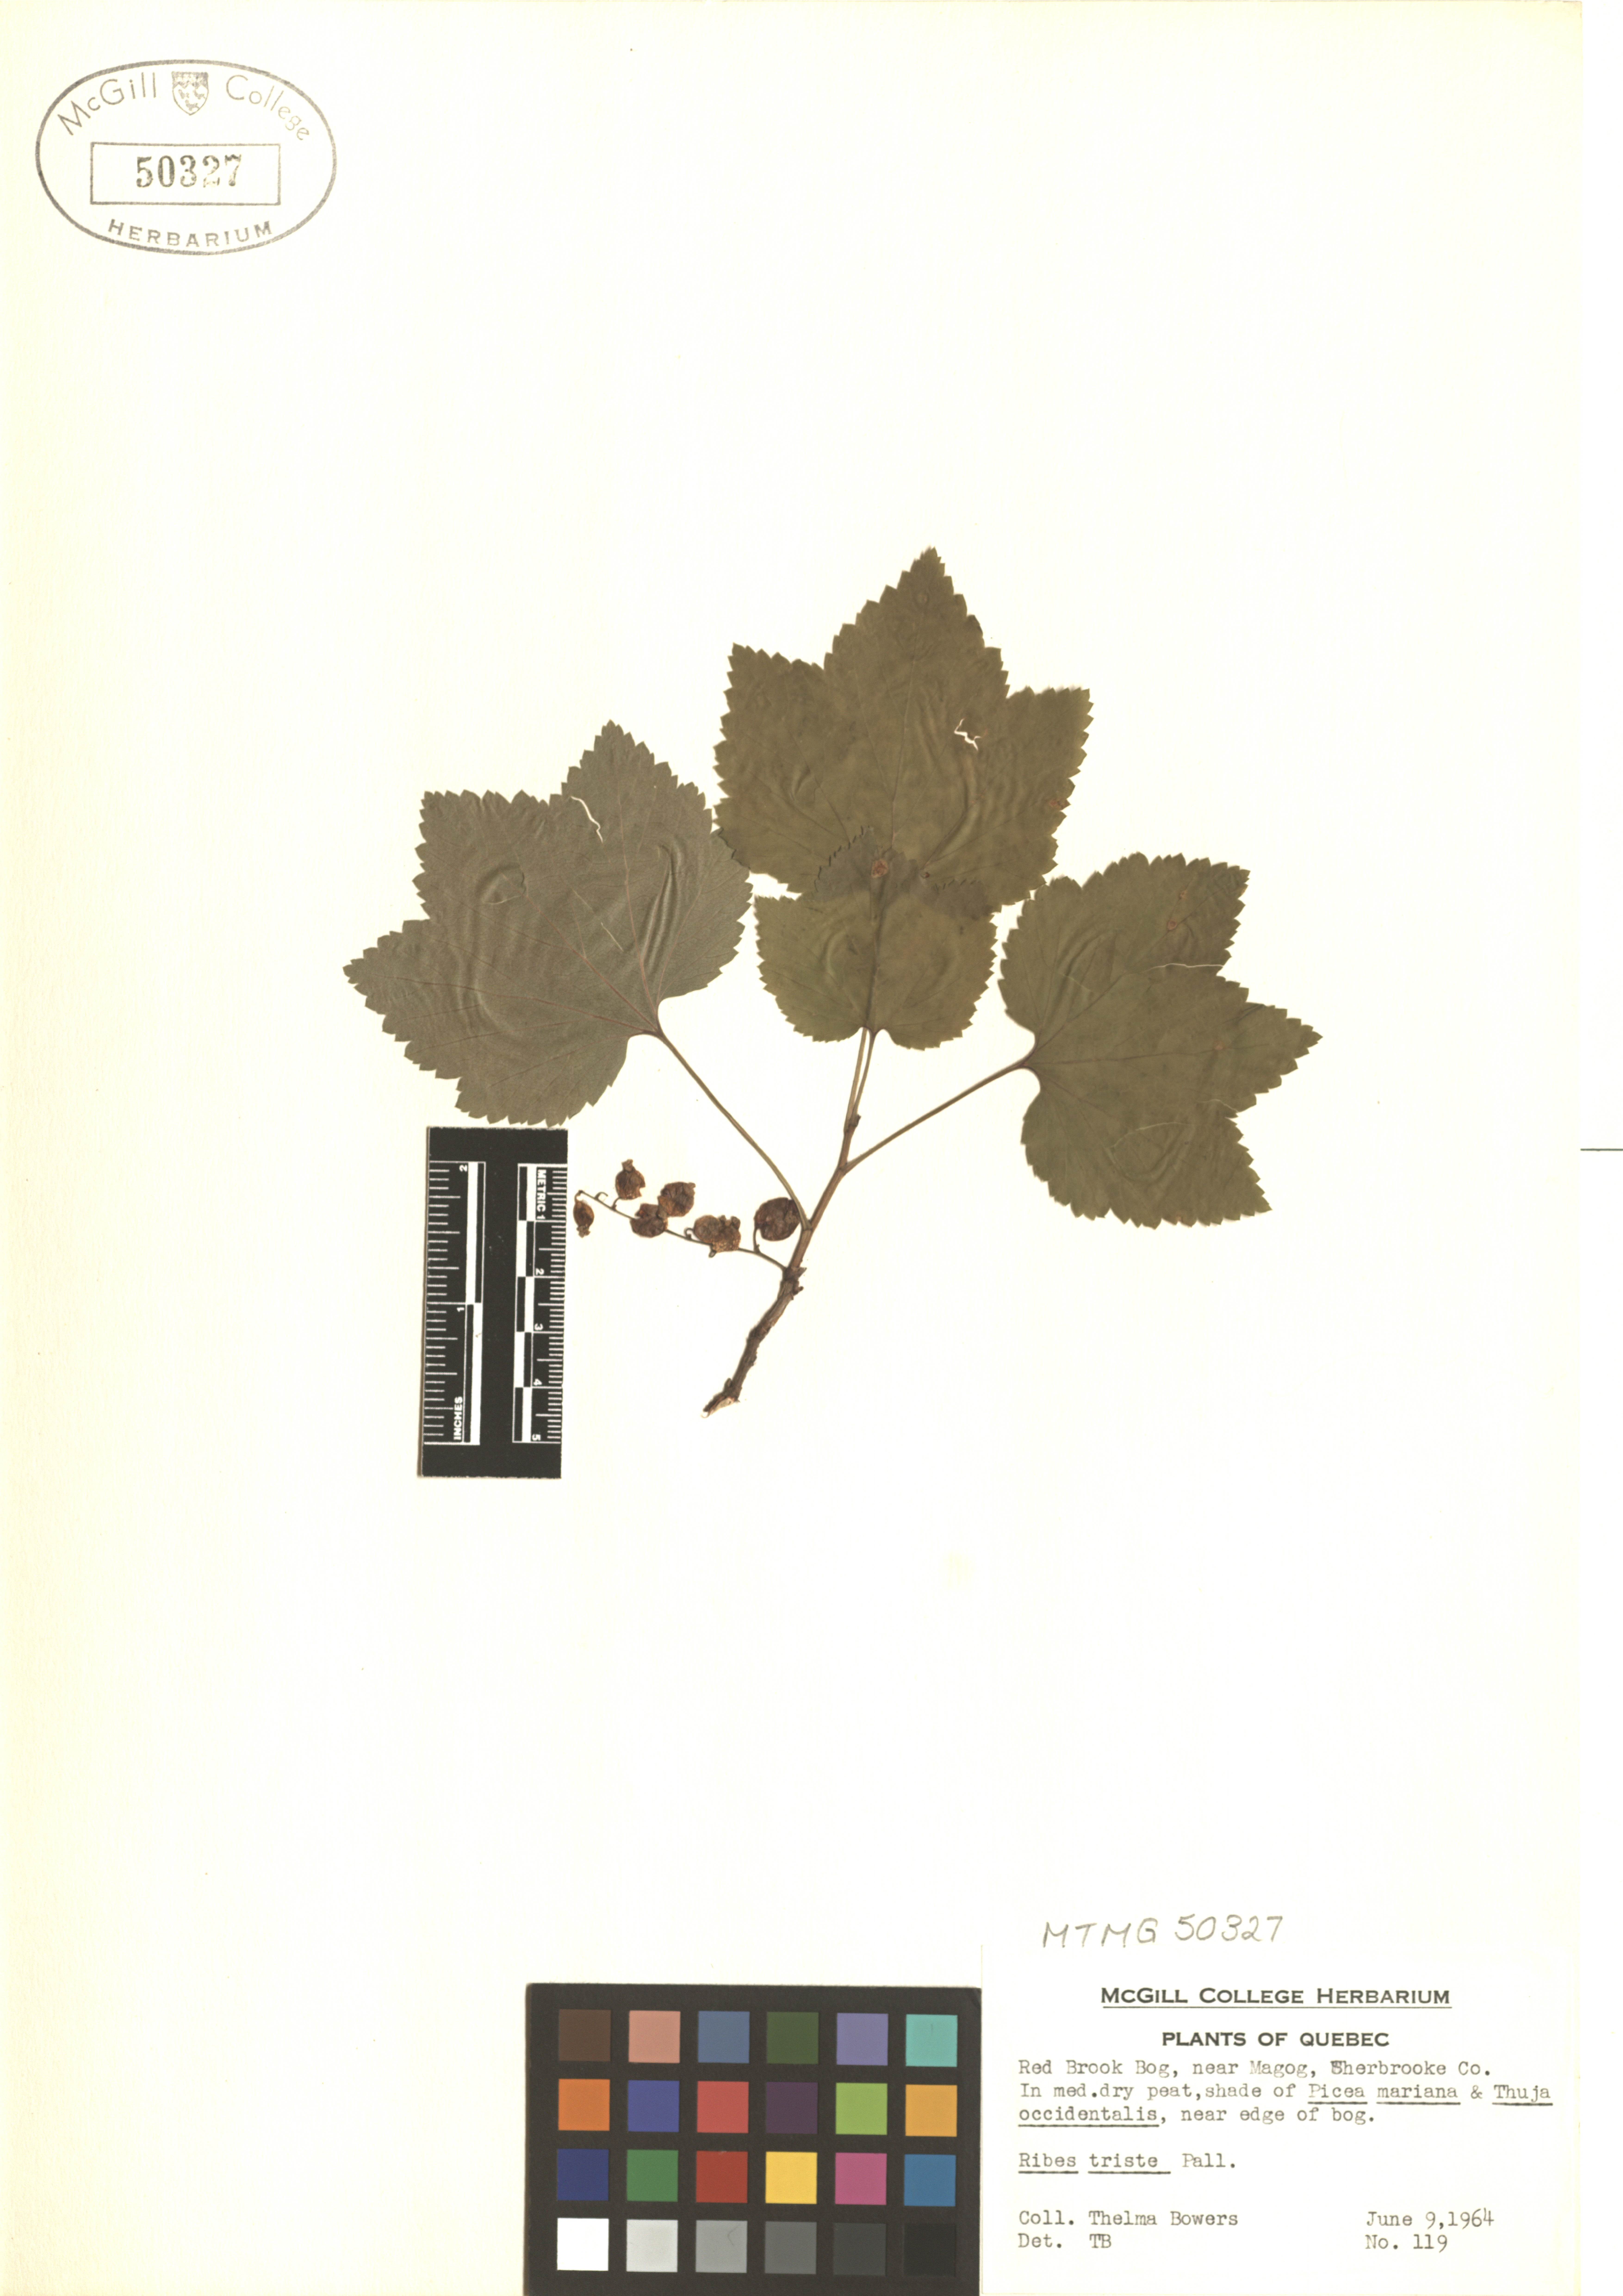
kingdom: Plantae
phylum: Tracheophyta
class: Magnoliopsida
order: Saxifragales
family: Grossulariaceae
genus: Ribes
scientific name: Ribes triste
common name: Swamp red currant
